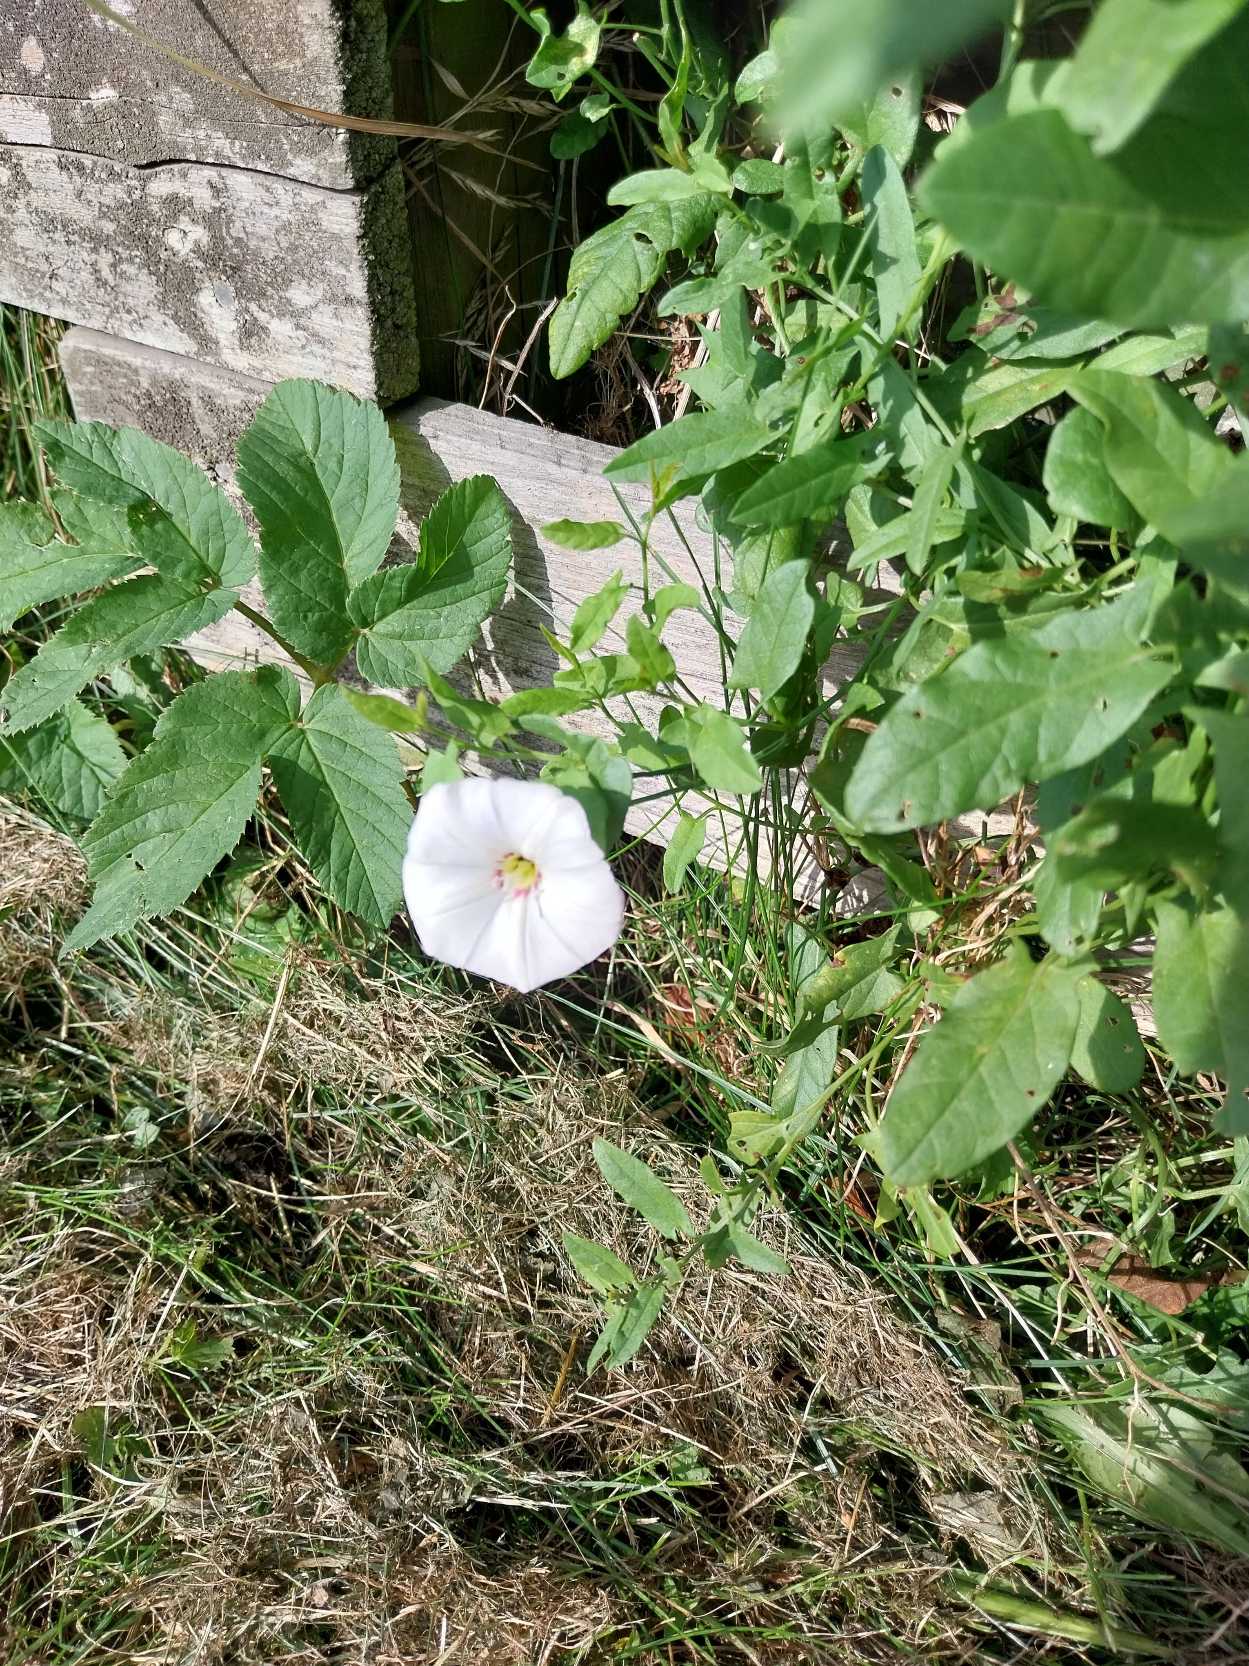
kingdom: Plantae
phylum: Tracheophyta
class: Magnoliopsida
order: Solanales
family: Convolvulaceae
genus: Convolvulus
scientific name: Convolvulus arvensis
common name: Ager-snerle
